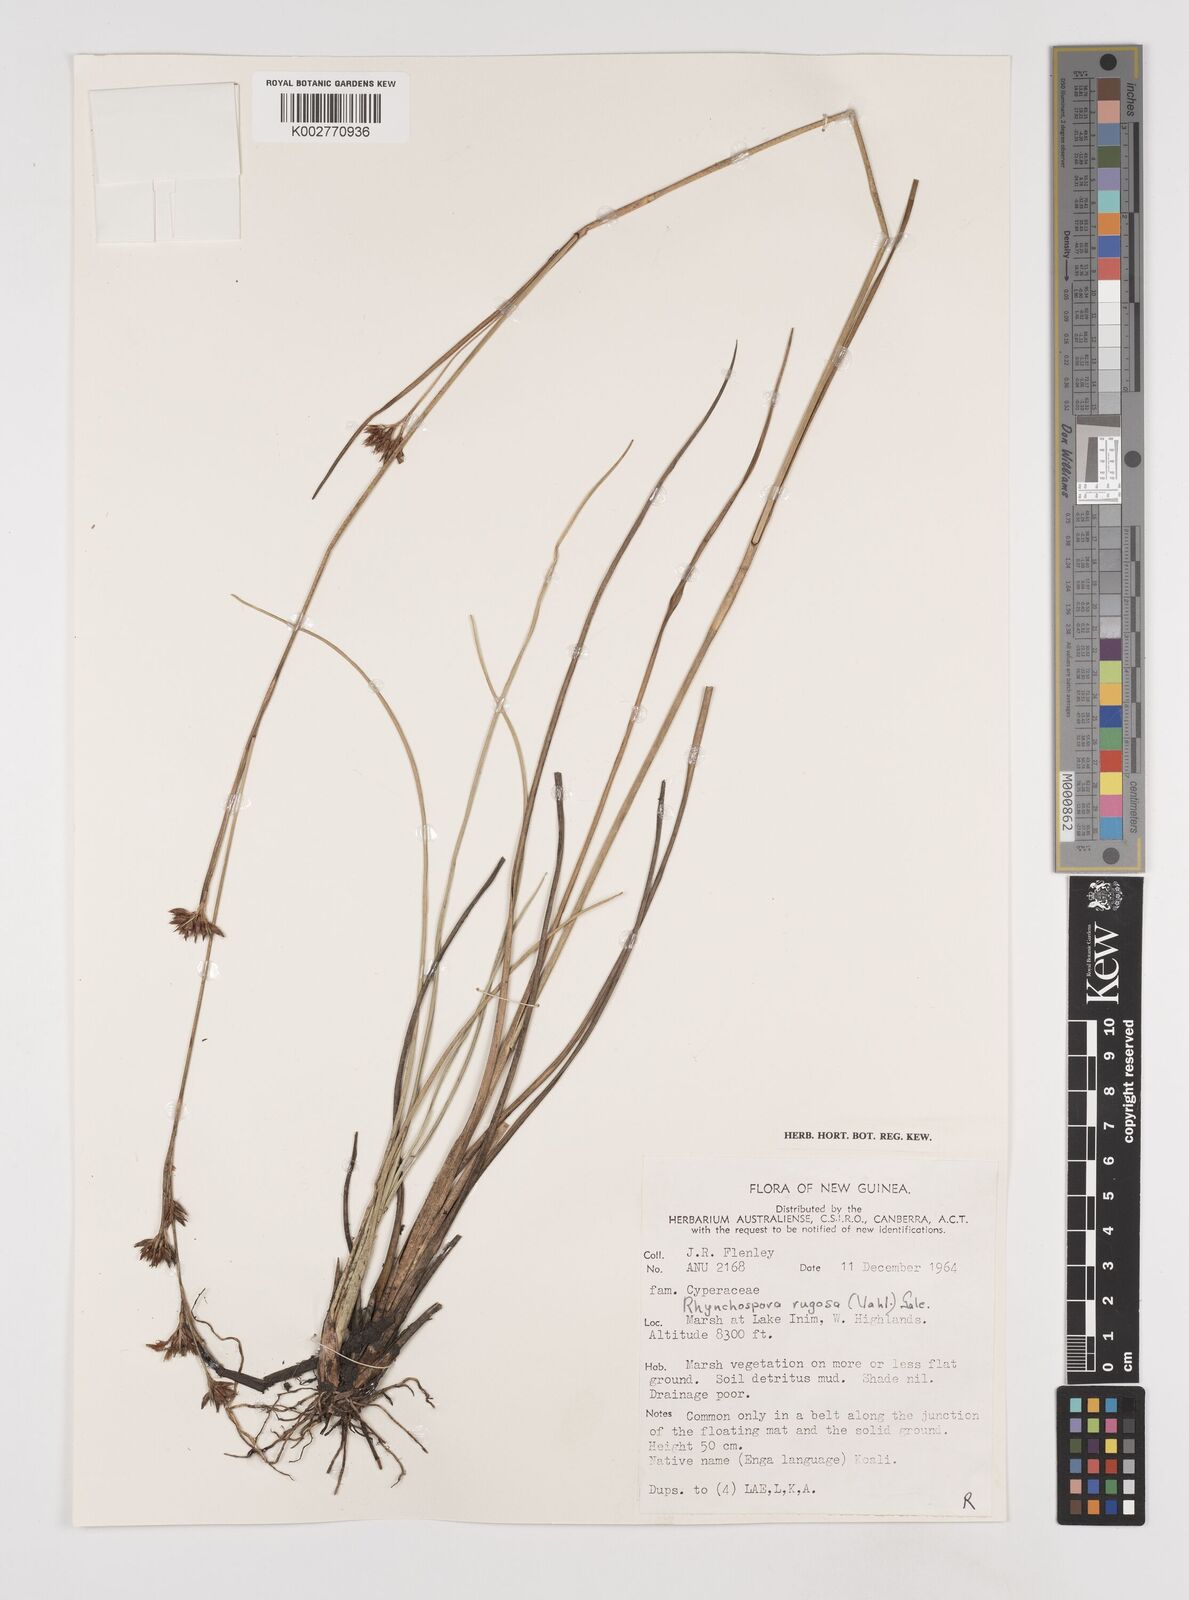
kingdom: Plantae
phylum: Tracheophyta
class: Liliopsida
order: Poales
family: Cyperaceae
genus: Rhynchospora
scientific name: Rhynchospora rugosa
